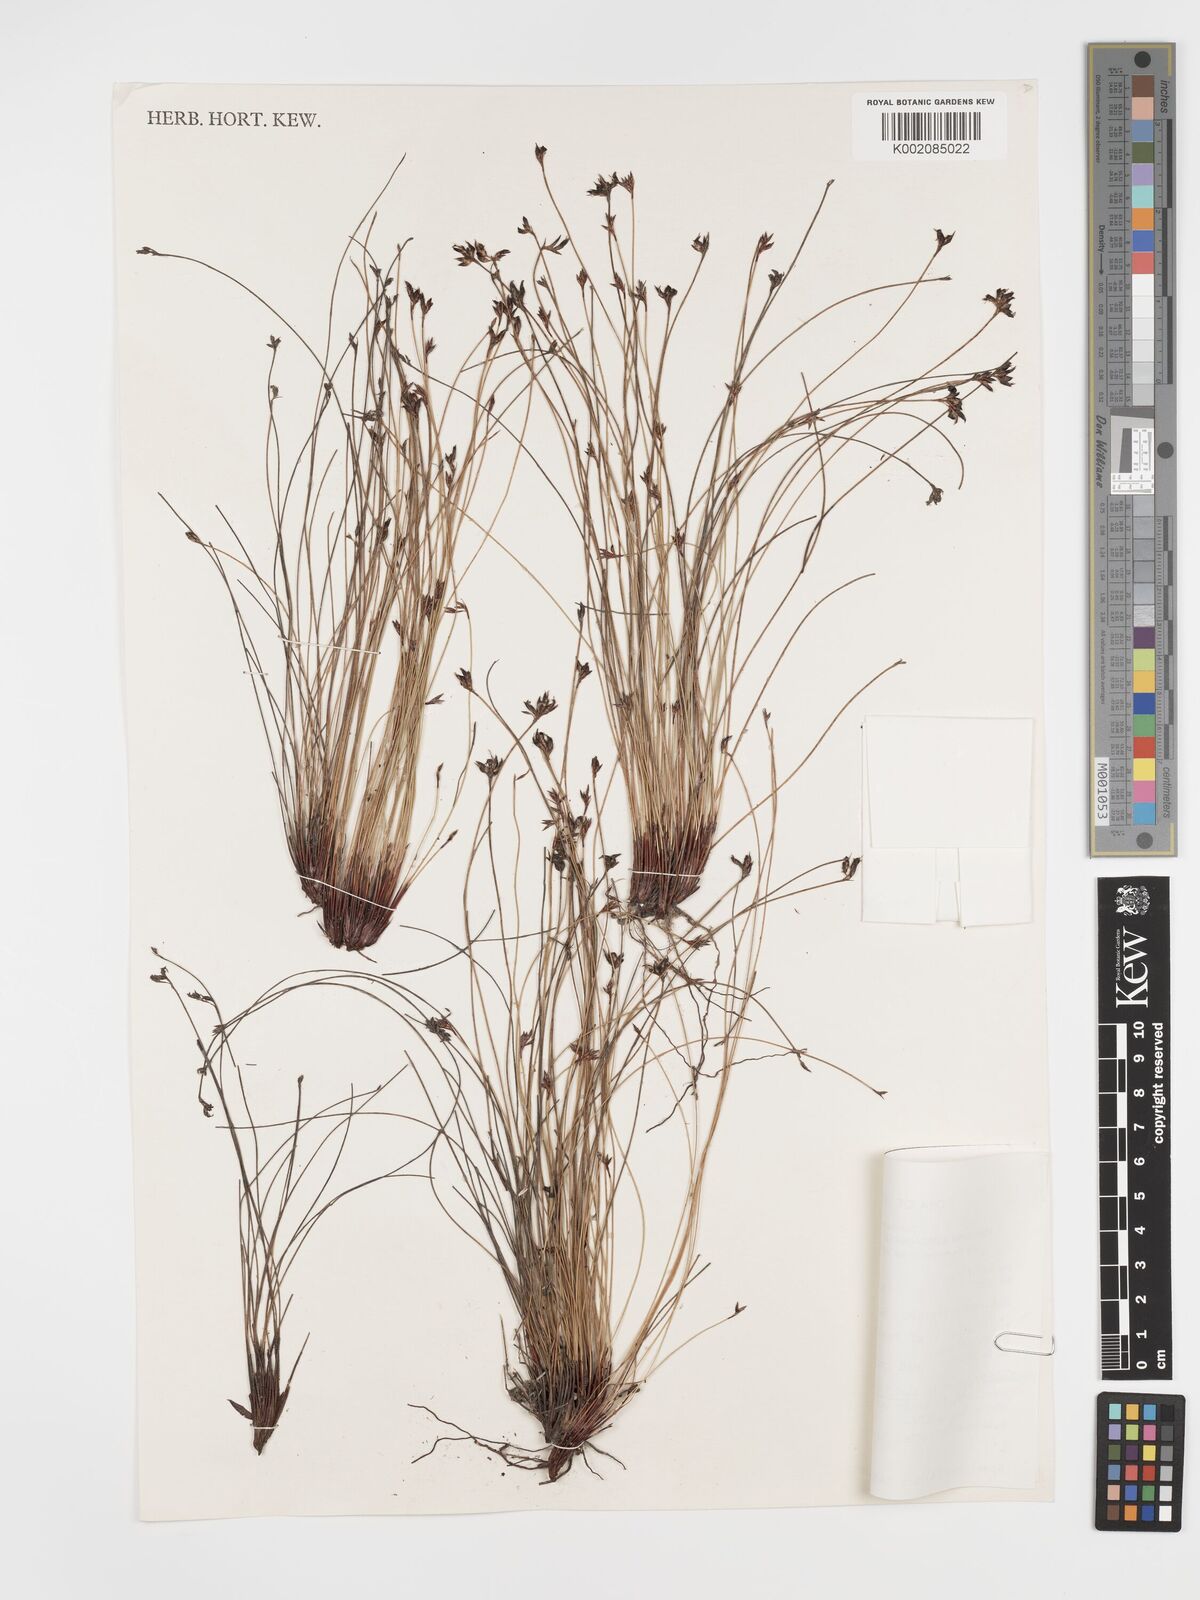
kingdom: Plantae
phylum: Tracheophyta
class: Liliopsida
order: Poales
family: Cyperaceae
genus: Schoenus
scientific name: Schoenus ericetorum
